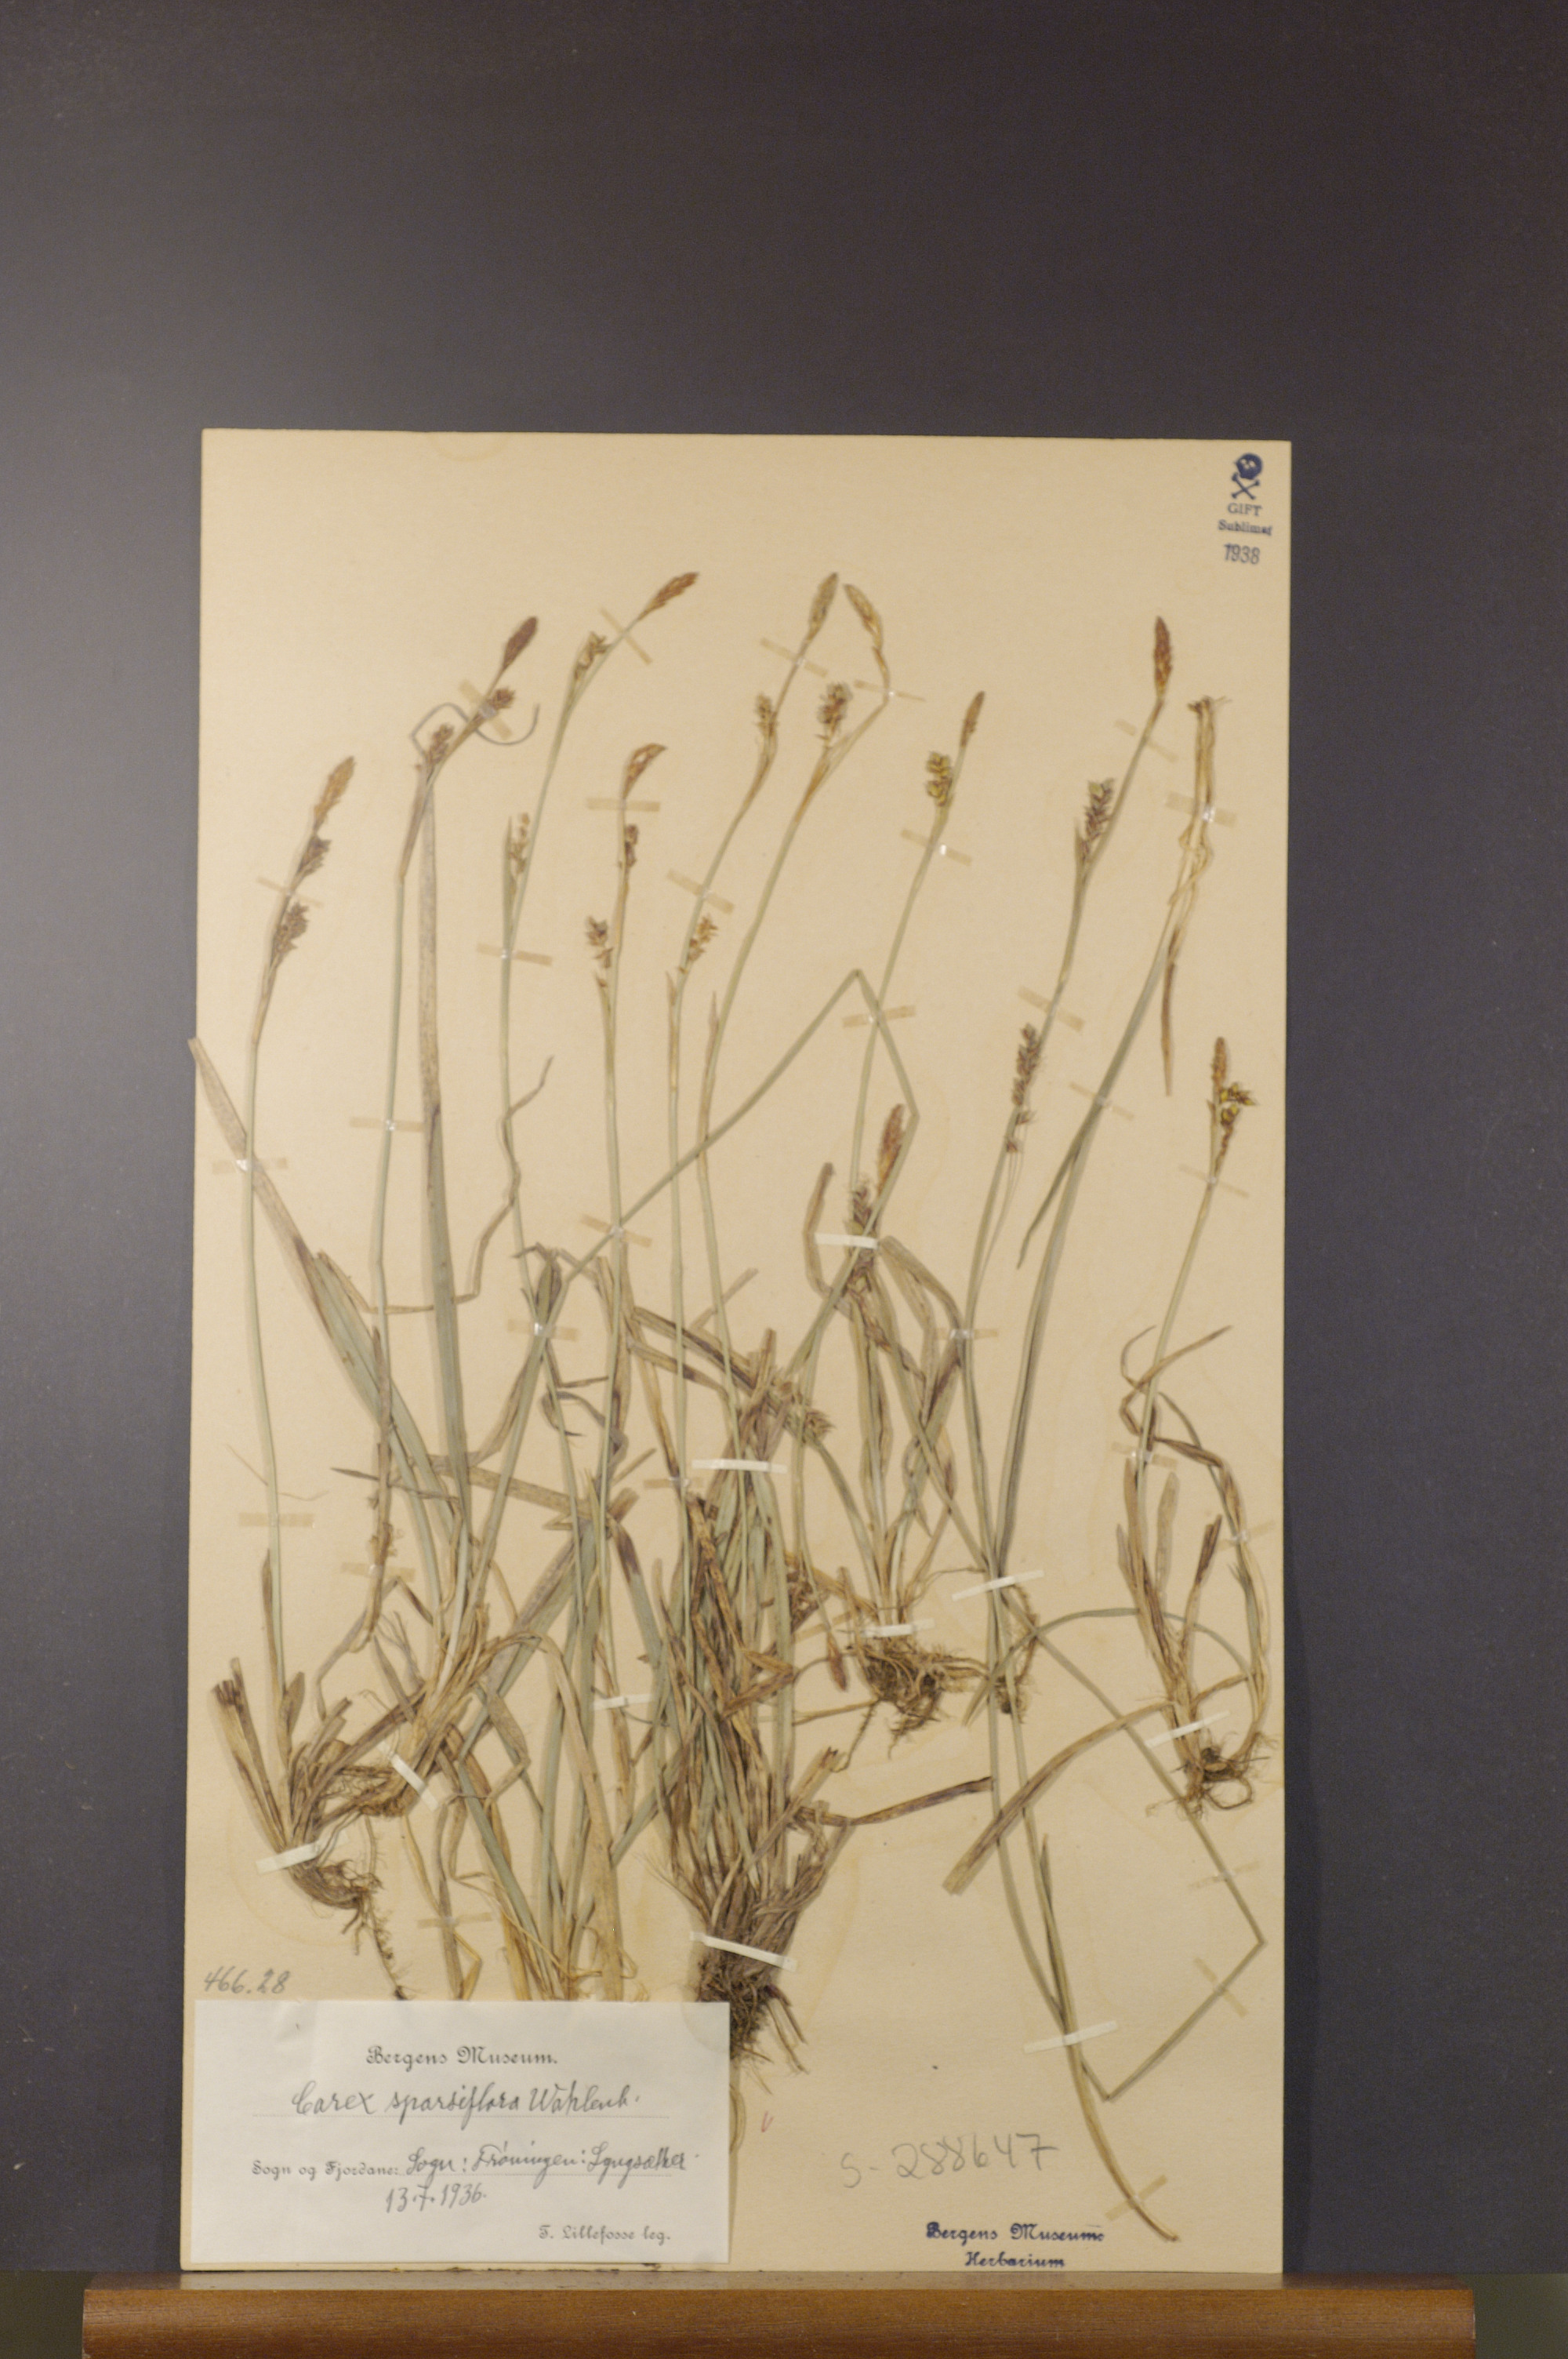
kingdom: Plantae
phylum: Tracheophyta
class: Liliopsida
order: Poales
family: Cyperaceae
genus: Carex
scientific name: Carex vaginata
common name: Sheathed sedge
